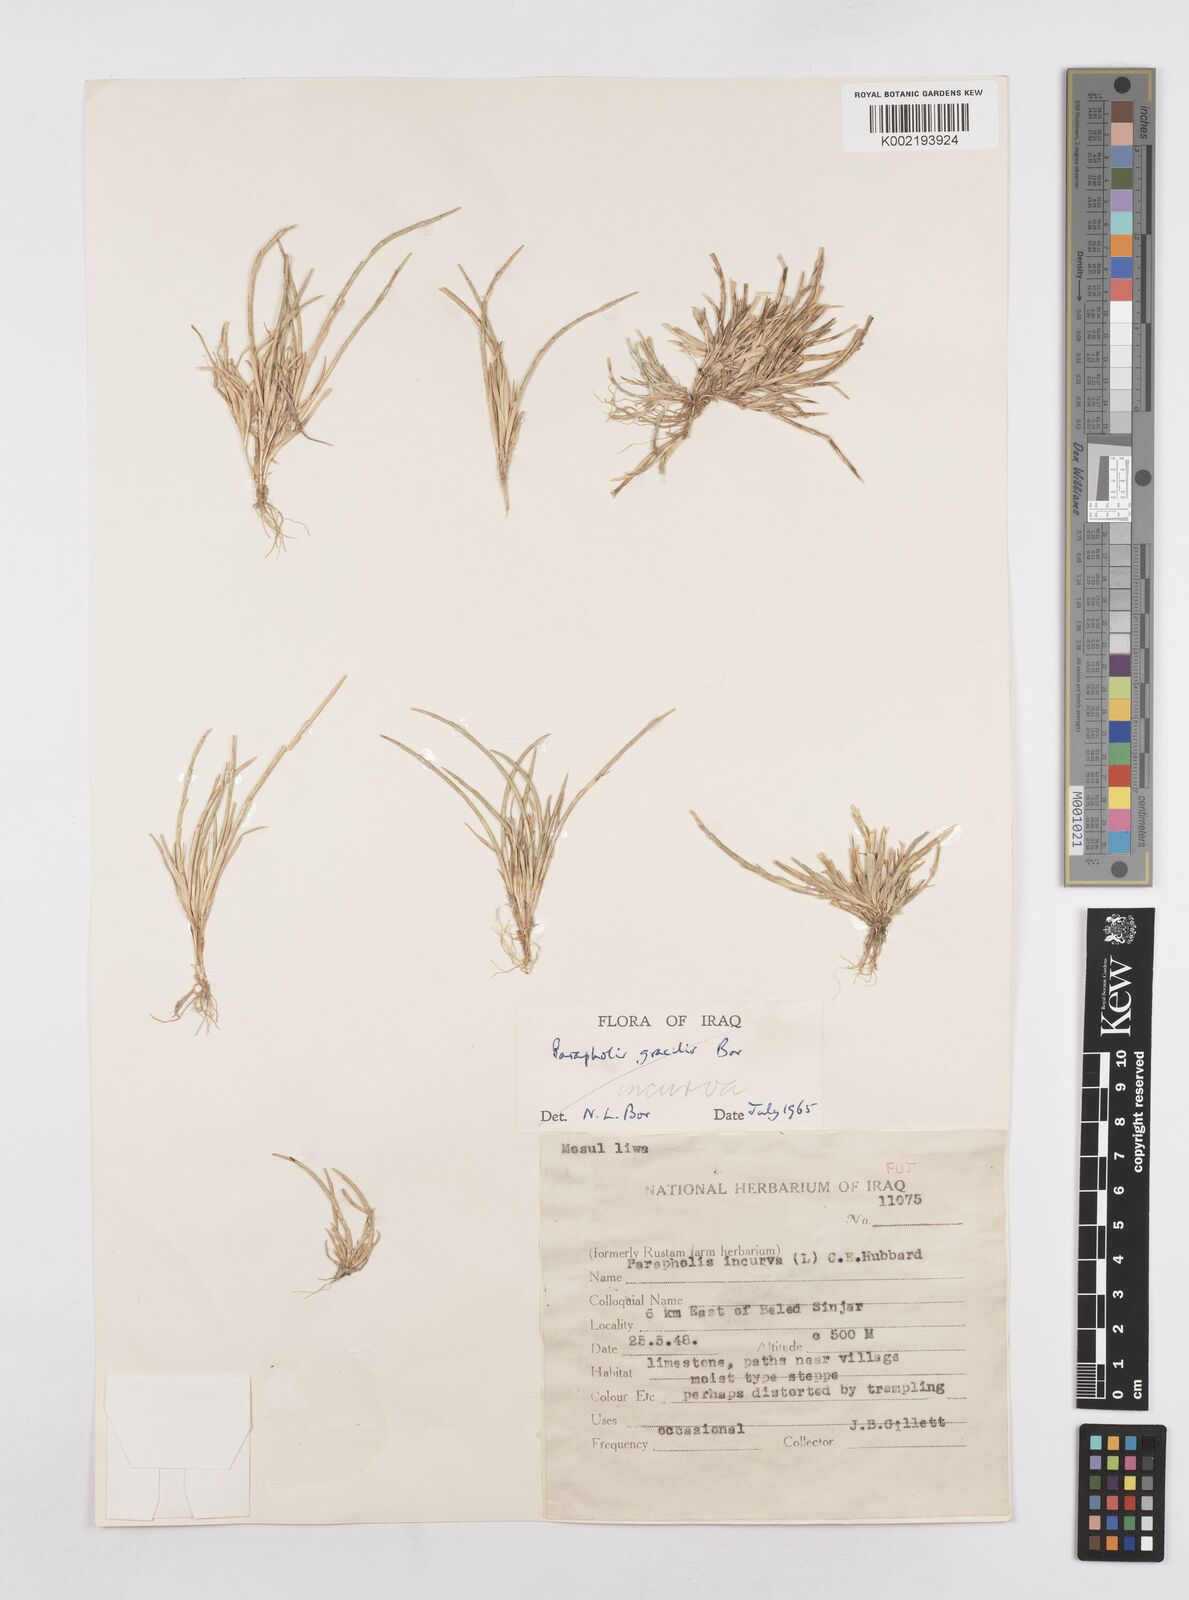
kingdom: Plantae
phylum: Tracheophyta
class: Liliopsida
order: Poales
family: Poaceae
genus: Parapholis
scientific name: Parapholis incurva
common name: Curved sicklegrass
